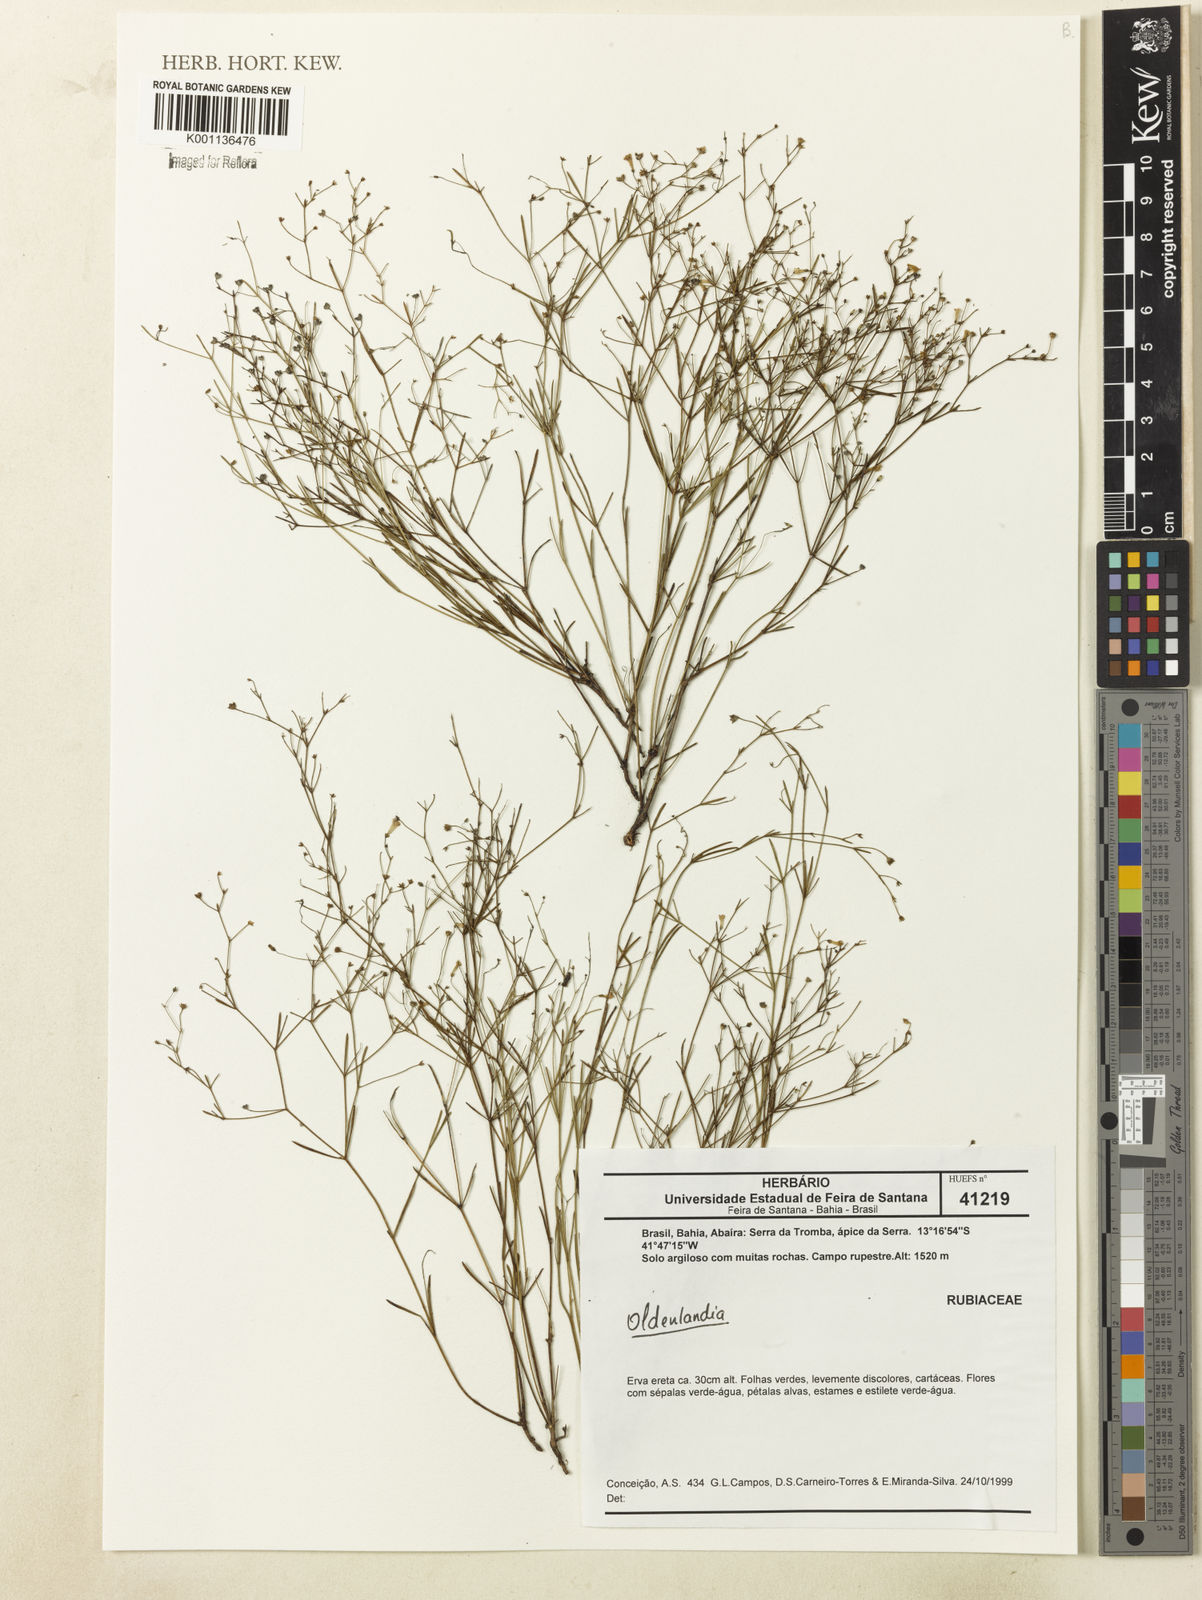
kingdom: Plantae
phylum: Tracheophyta
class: Magnoliopsida
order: Gentianales
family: Rubiaceae
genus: Oldenlandia
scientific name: Oldenlandia
